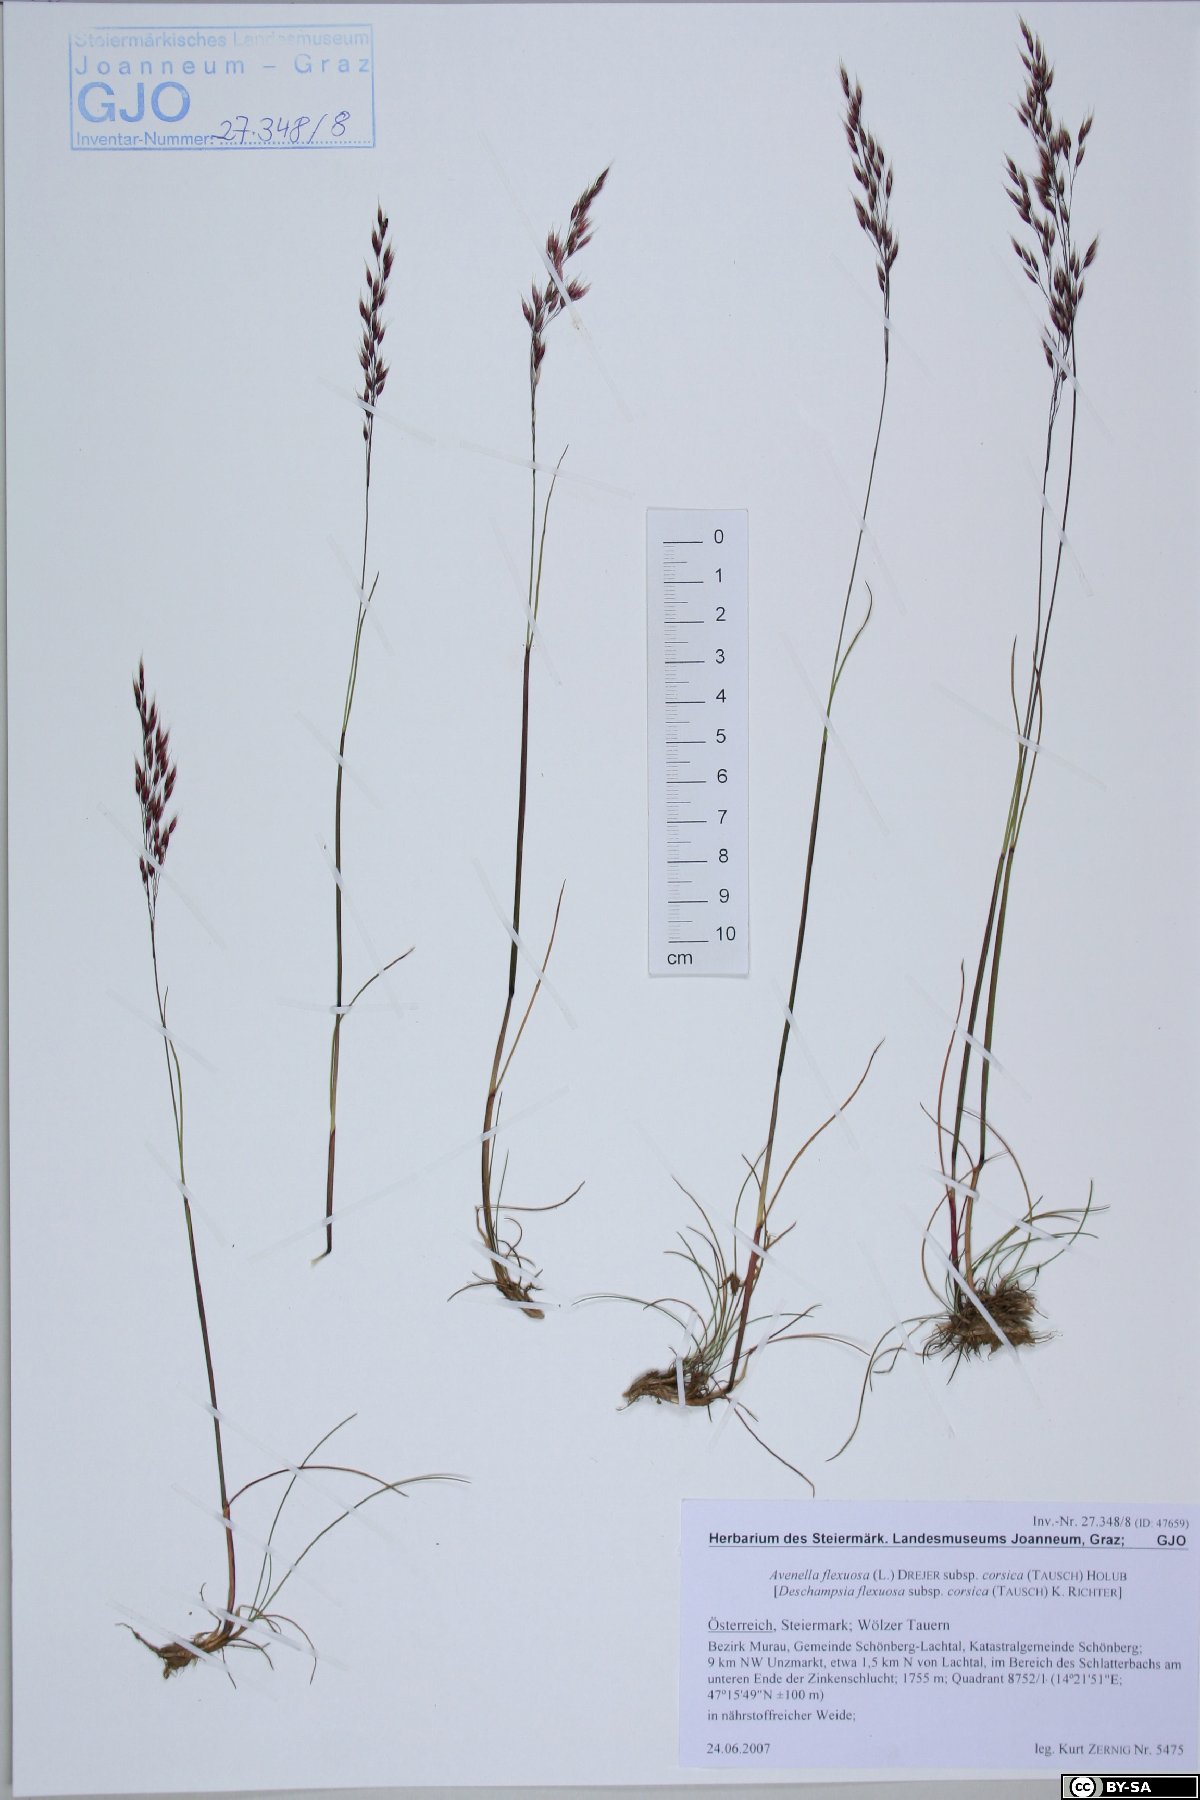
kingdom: Plantae
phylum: Tracheophyta
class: Liliopsida
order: Poales
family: Poaceae
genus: Avenella
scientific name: Avenella flexuosa
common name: Wavy hairgrass
